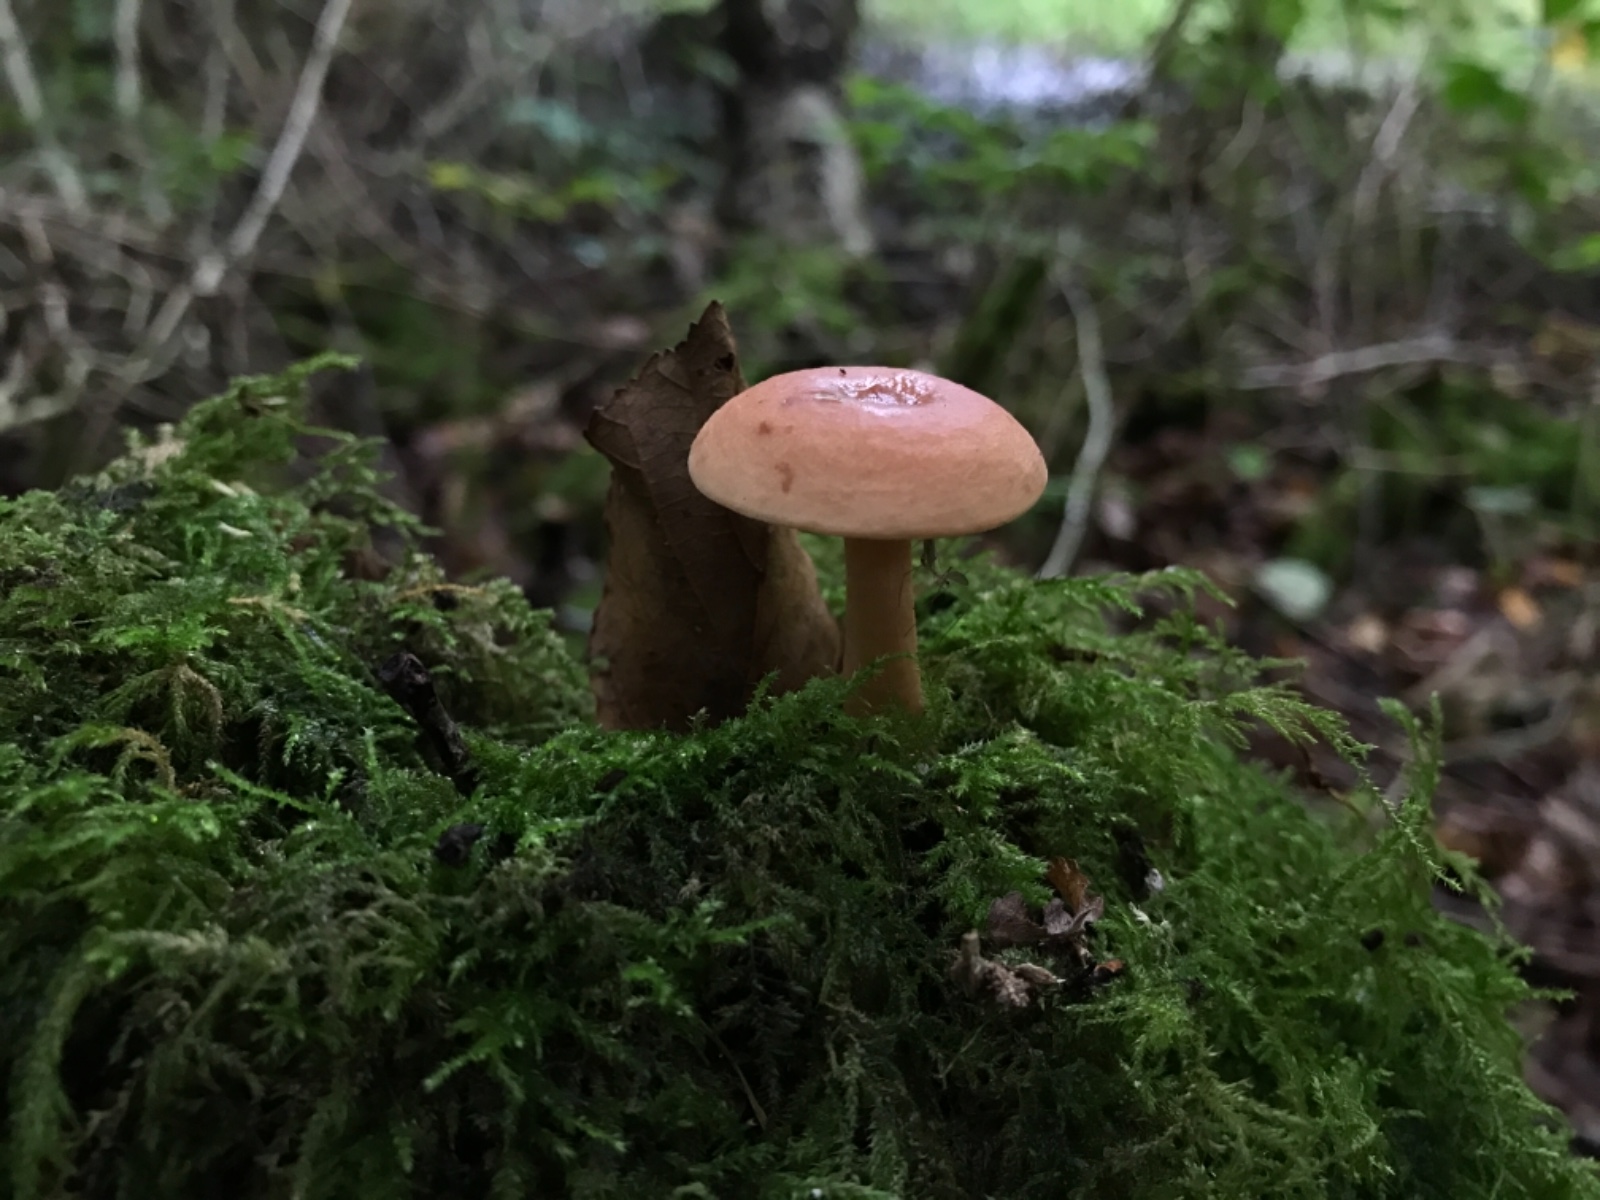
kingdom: Fungi
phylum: Basidiomycota
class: Agaricomycetes
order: Russulales
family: Russulaceae
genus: Lactarius
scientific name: Lactarius tabidus
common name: rynket mælkehat
